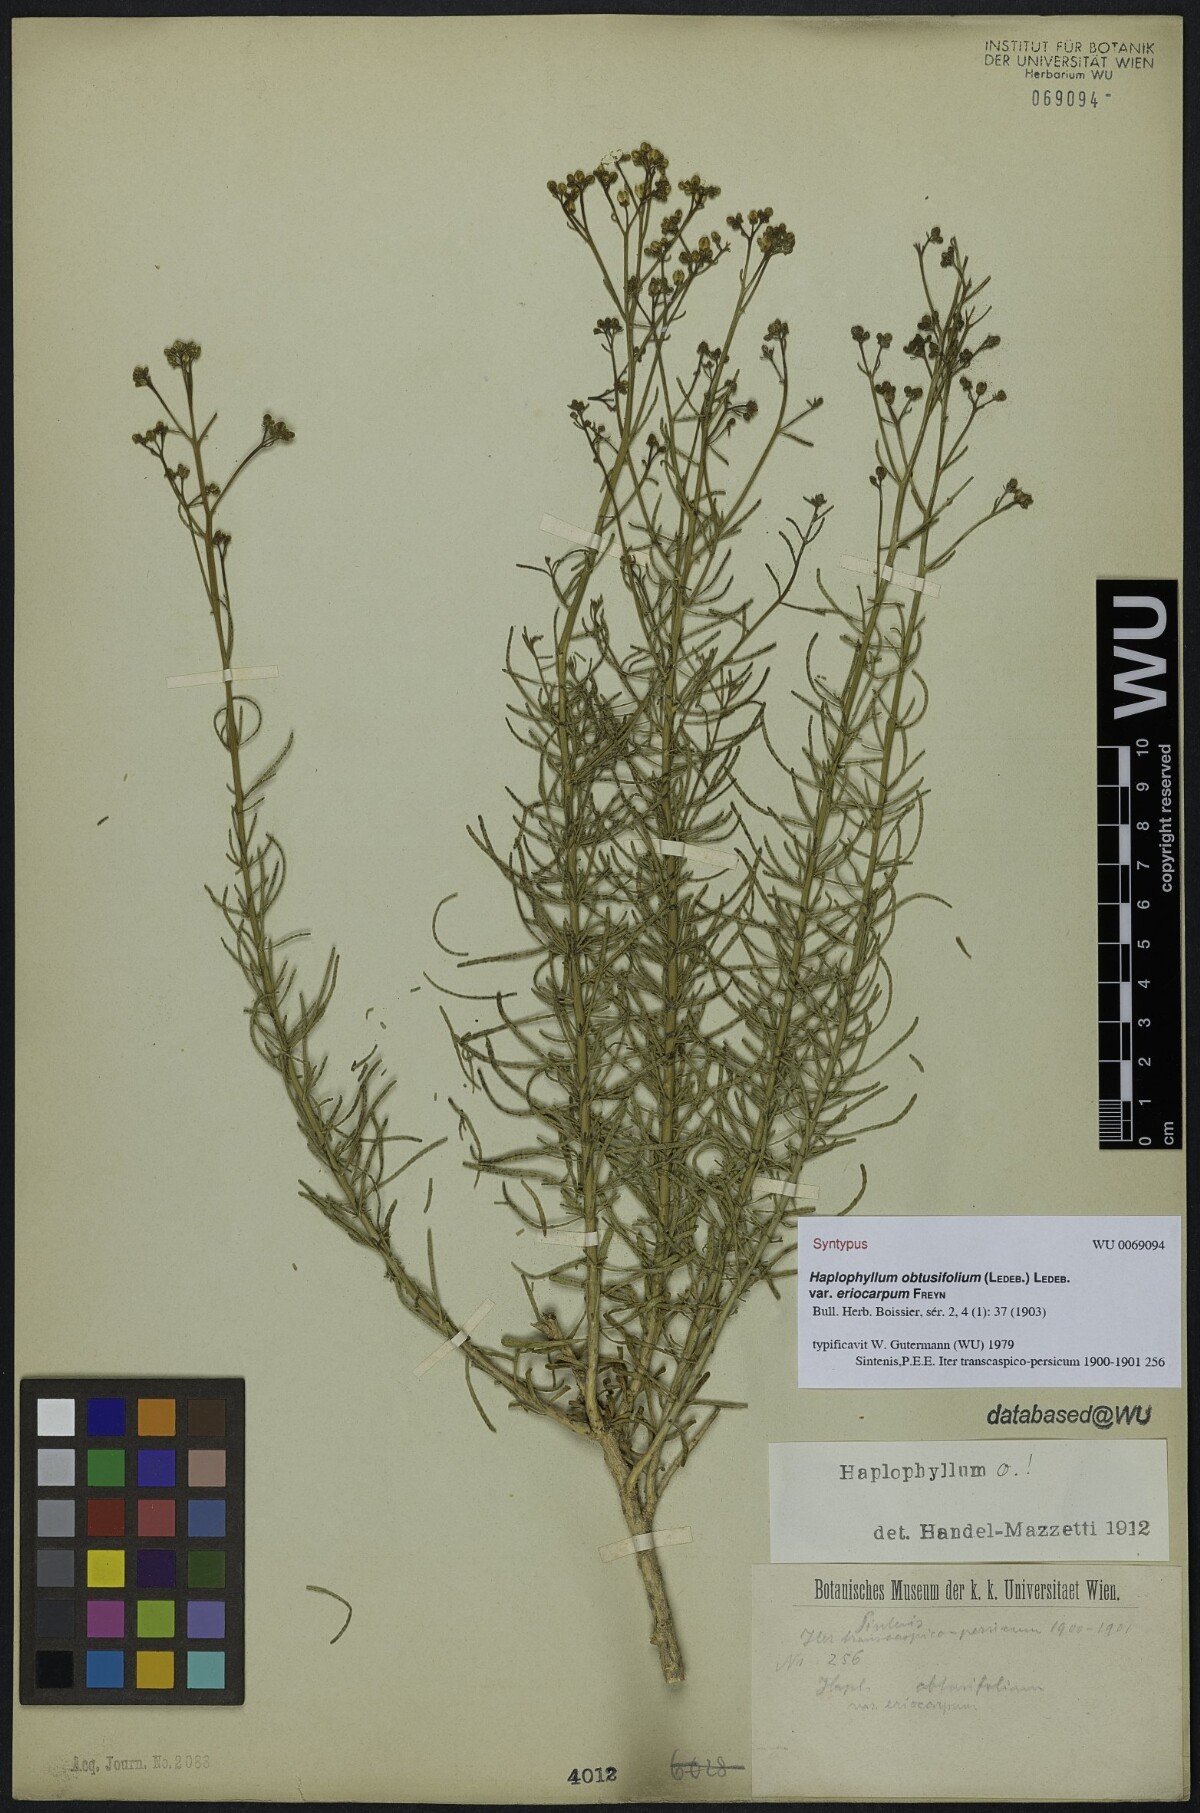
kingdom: Plantae
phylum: Tracheophyta
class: Magnoliopsida
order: Sapindales
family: Rutaceae
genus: Haplophyllum
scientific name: Haplophyllum obtusifolium
